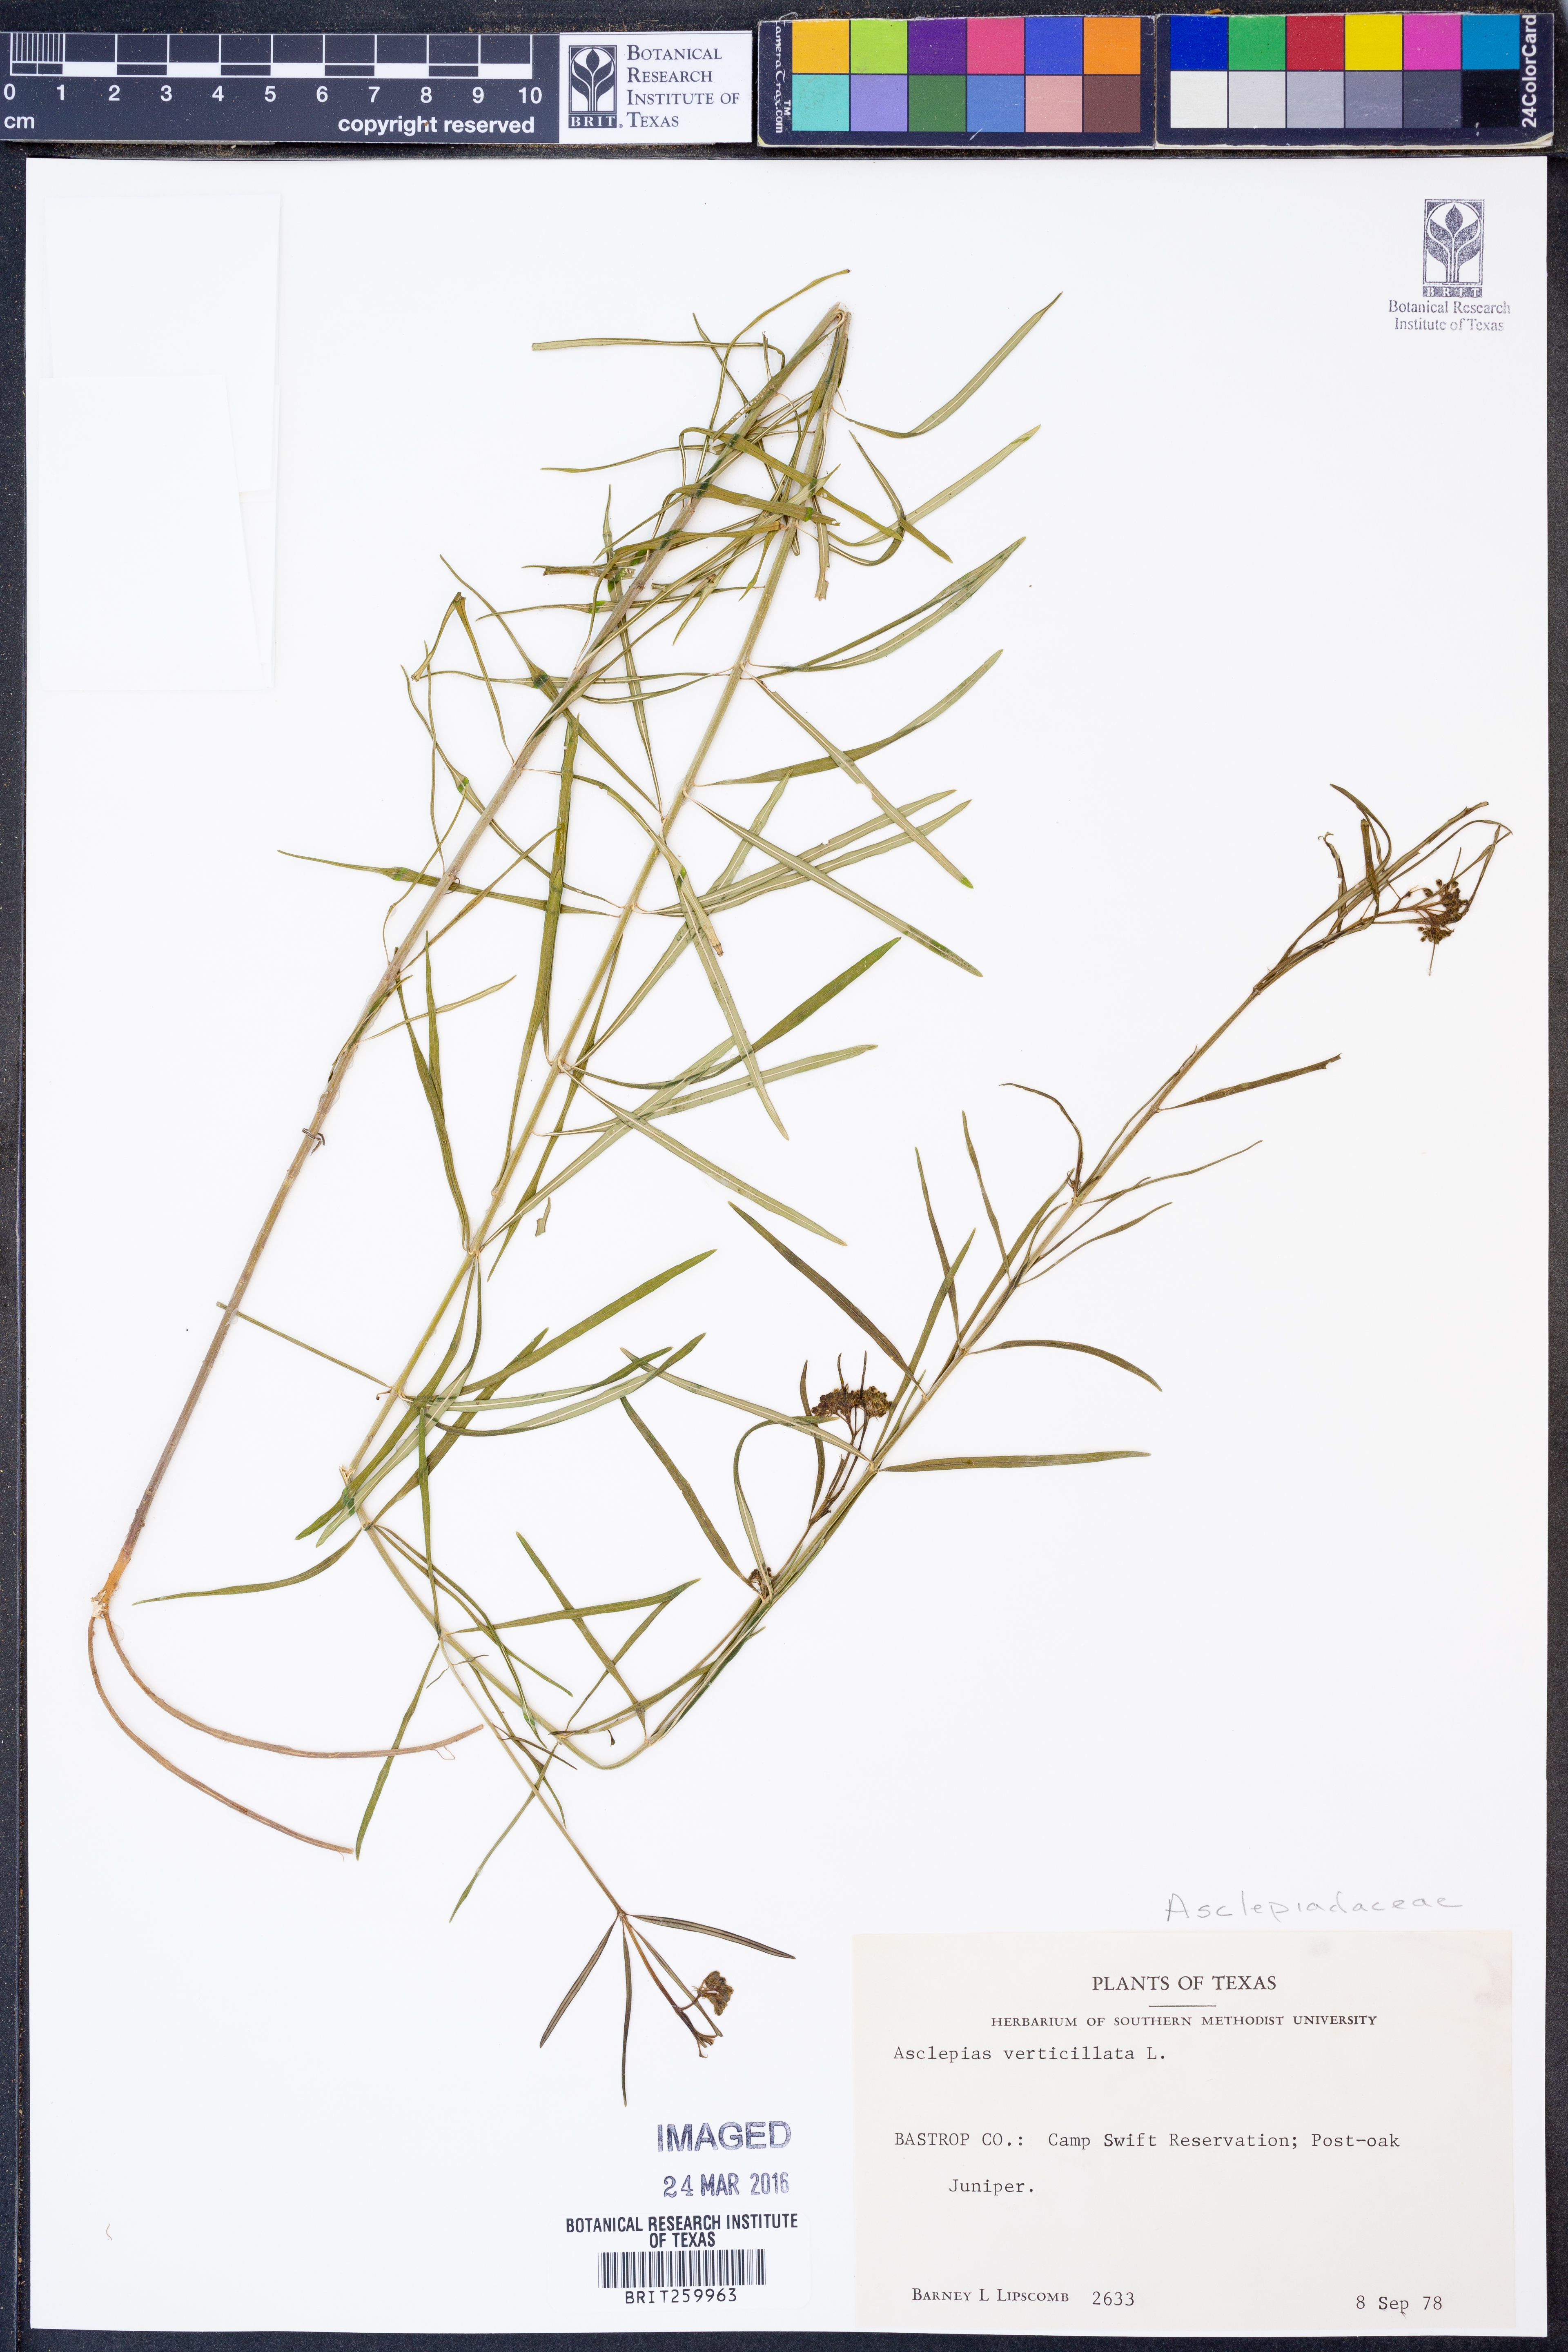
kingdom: Plantae
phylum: Tracheophyta
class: Magnoliopsida
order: Gentianales
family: Apocynaceae
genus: Asclepias
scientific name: Asclepias verticillata
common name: Eastern whorled milkweed
